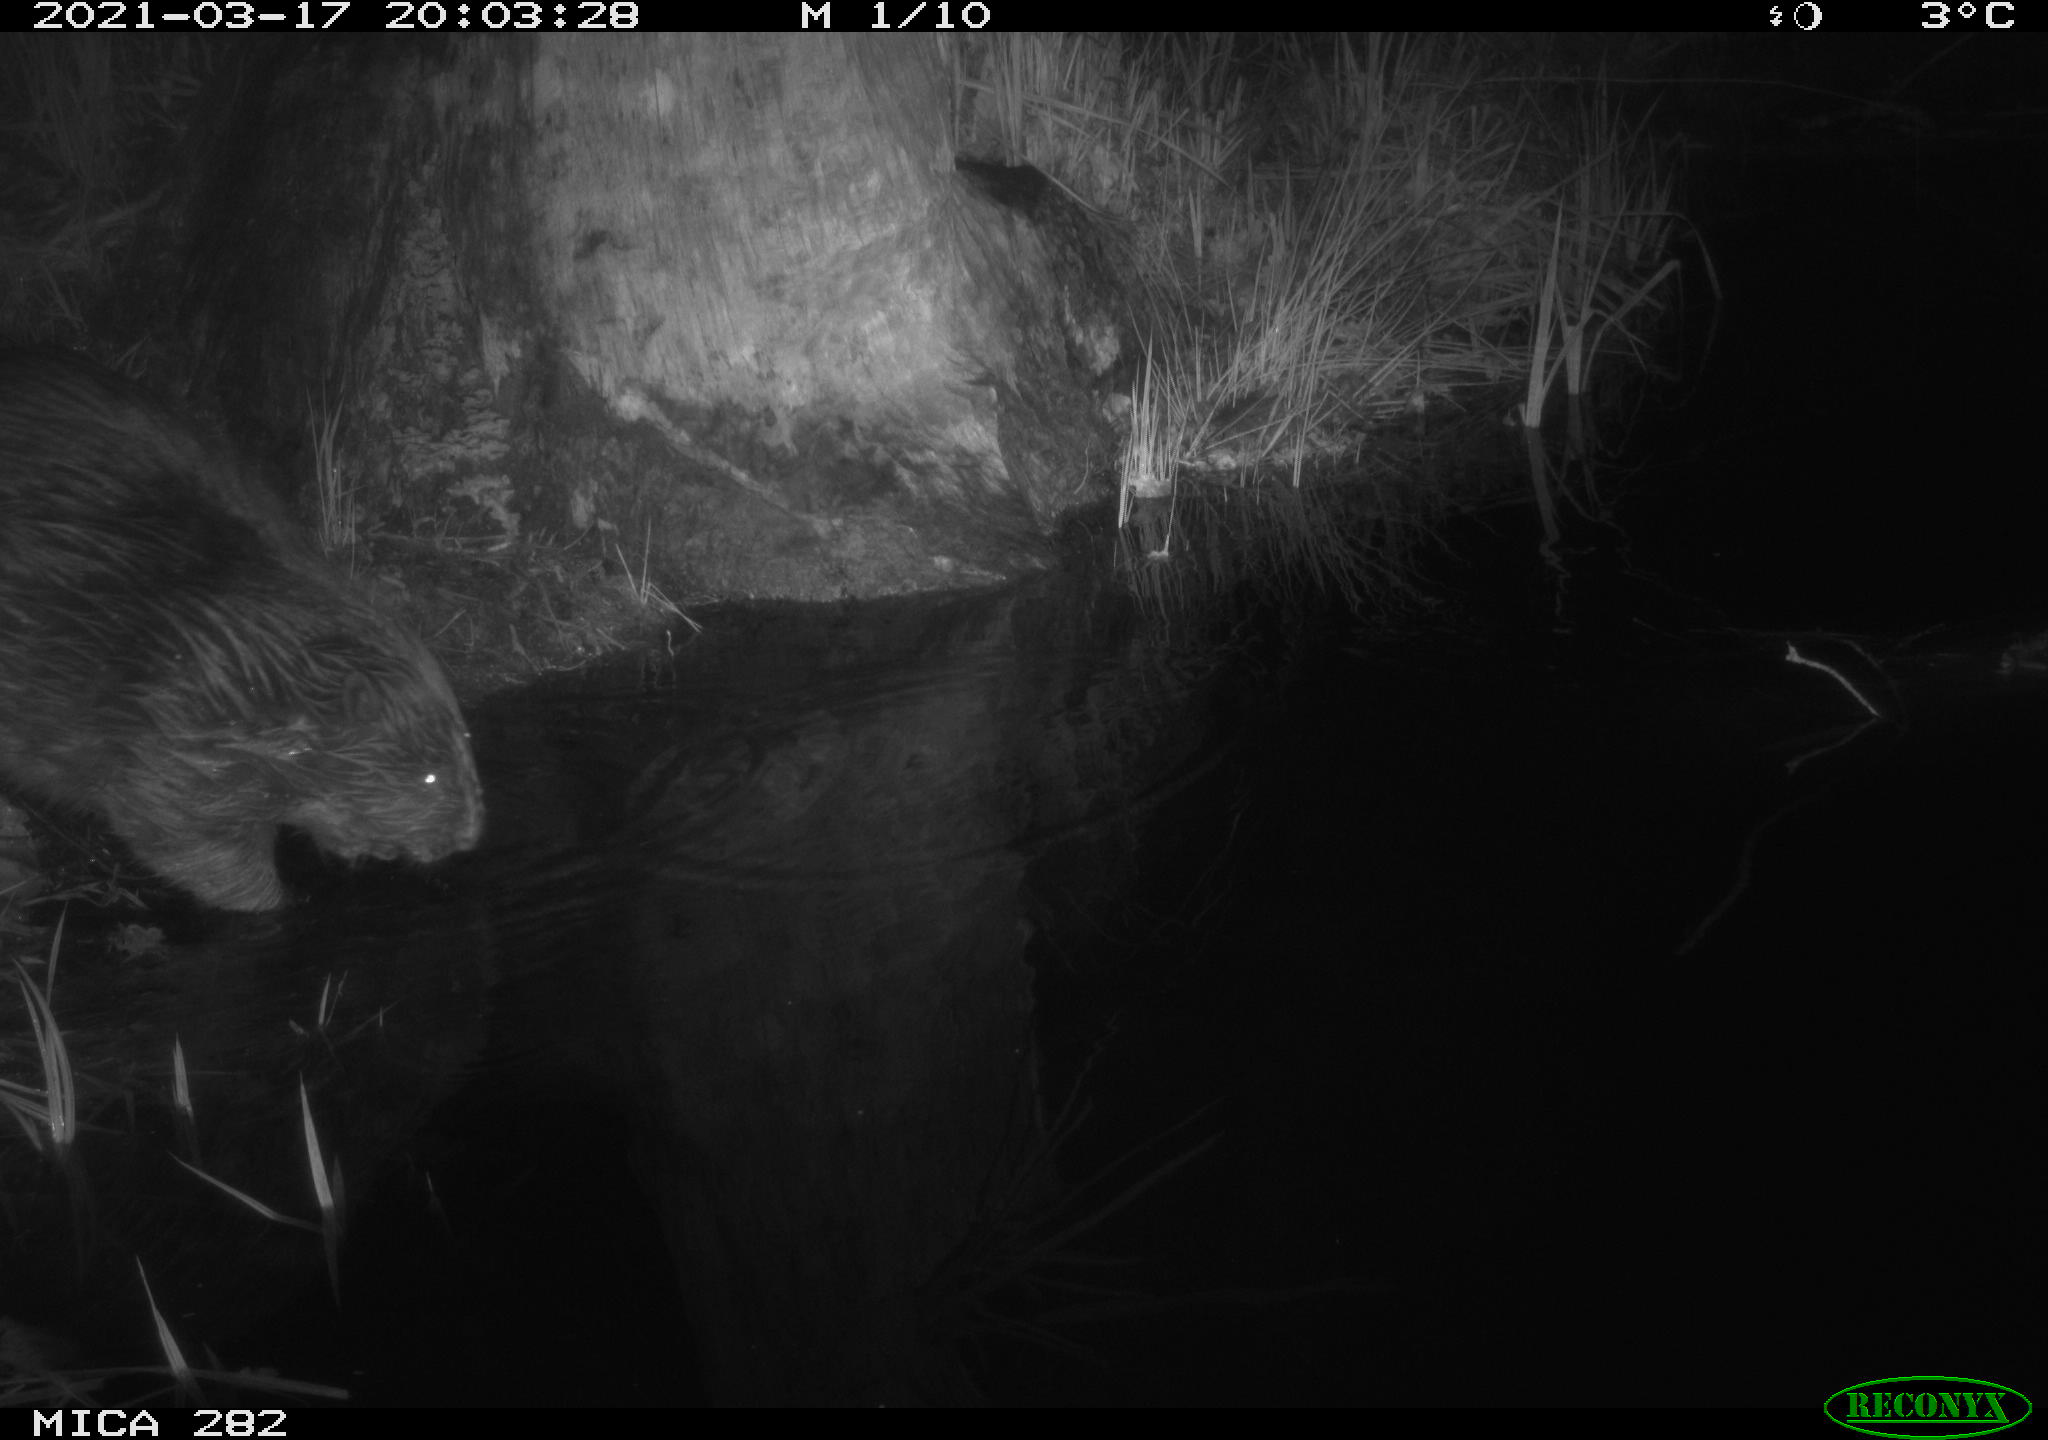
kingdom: Animalia
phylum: Chordata
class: Mammalia
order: Rodentia
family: Castoridae
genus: Castor
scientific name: Castor fiber
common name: Eurasian beaver
